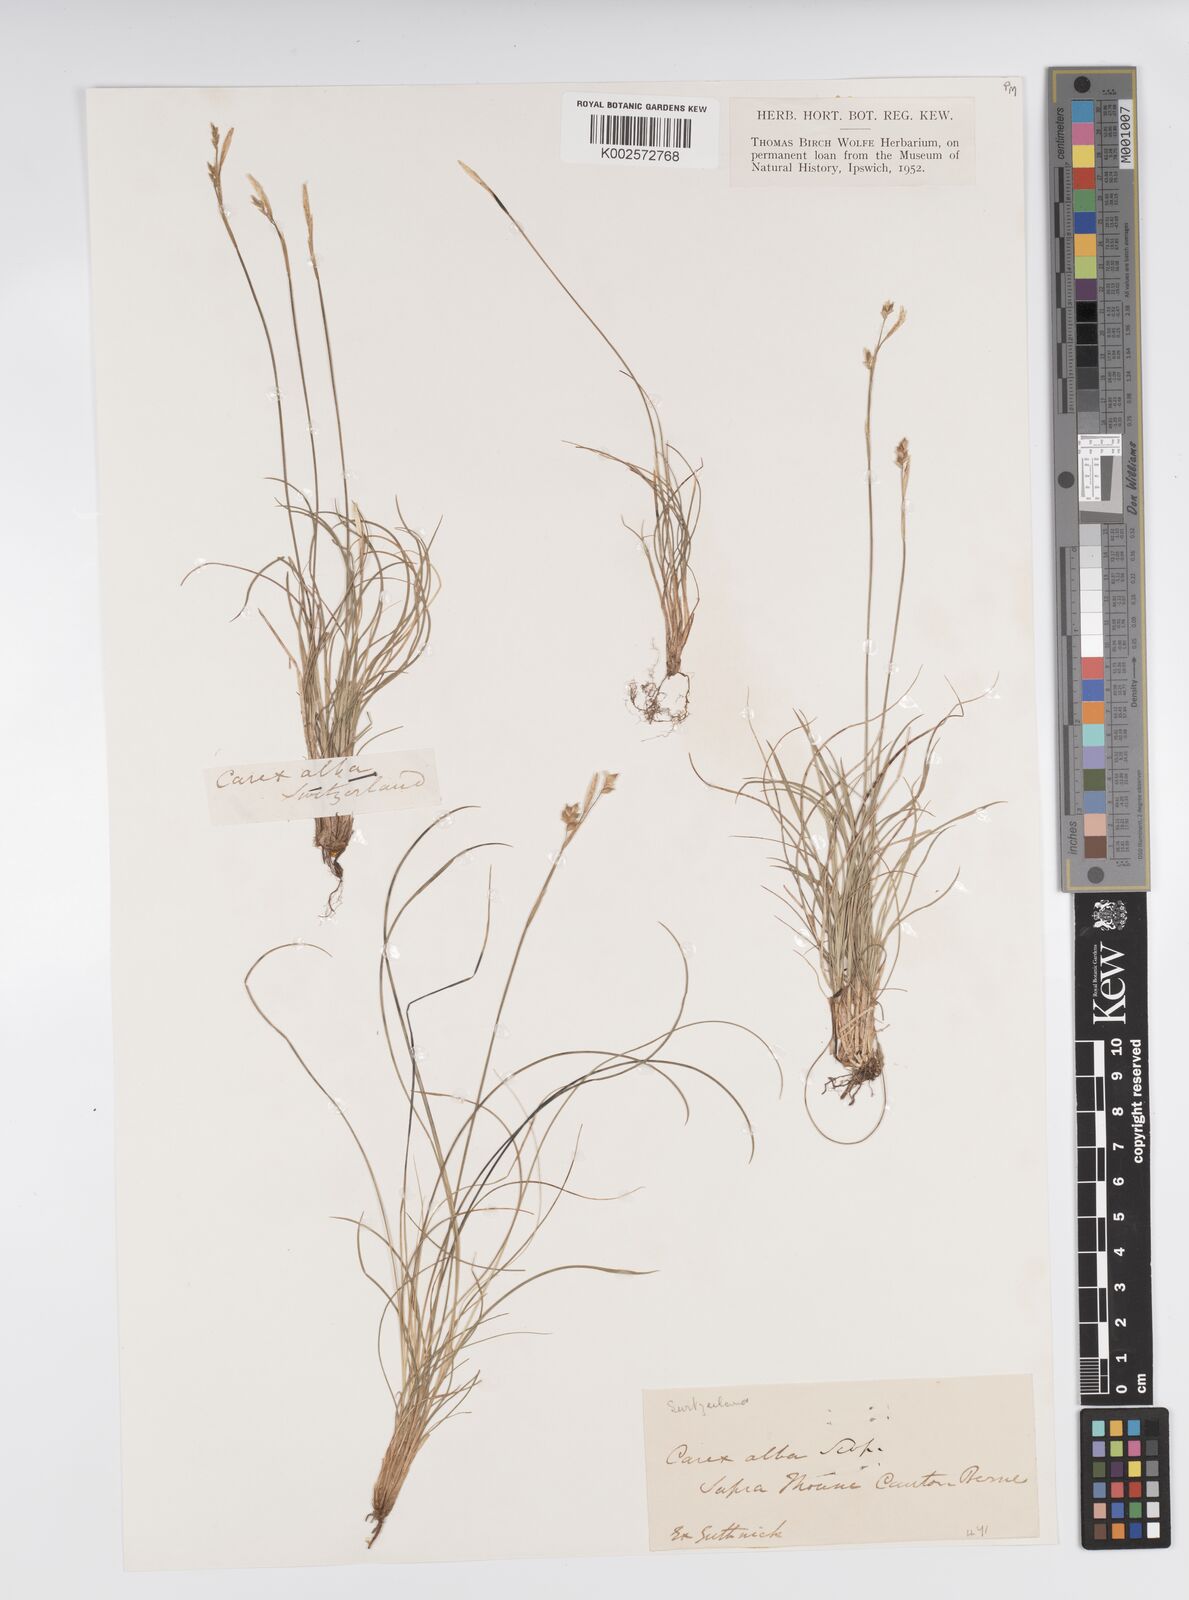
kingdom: Plantae
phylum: Tracheophyta
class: Liliopsida
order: Poales
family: Cyperaceae
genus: Carex
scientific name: Carex alba
